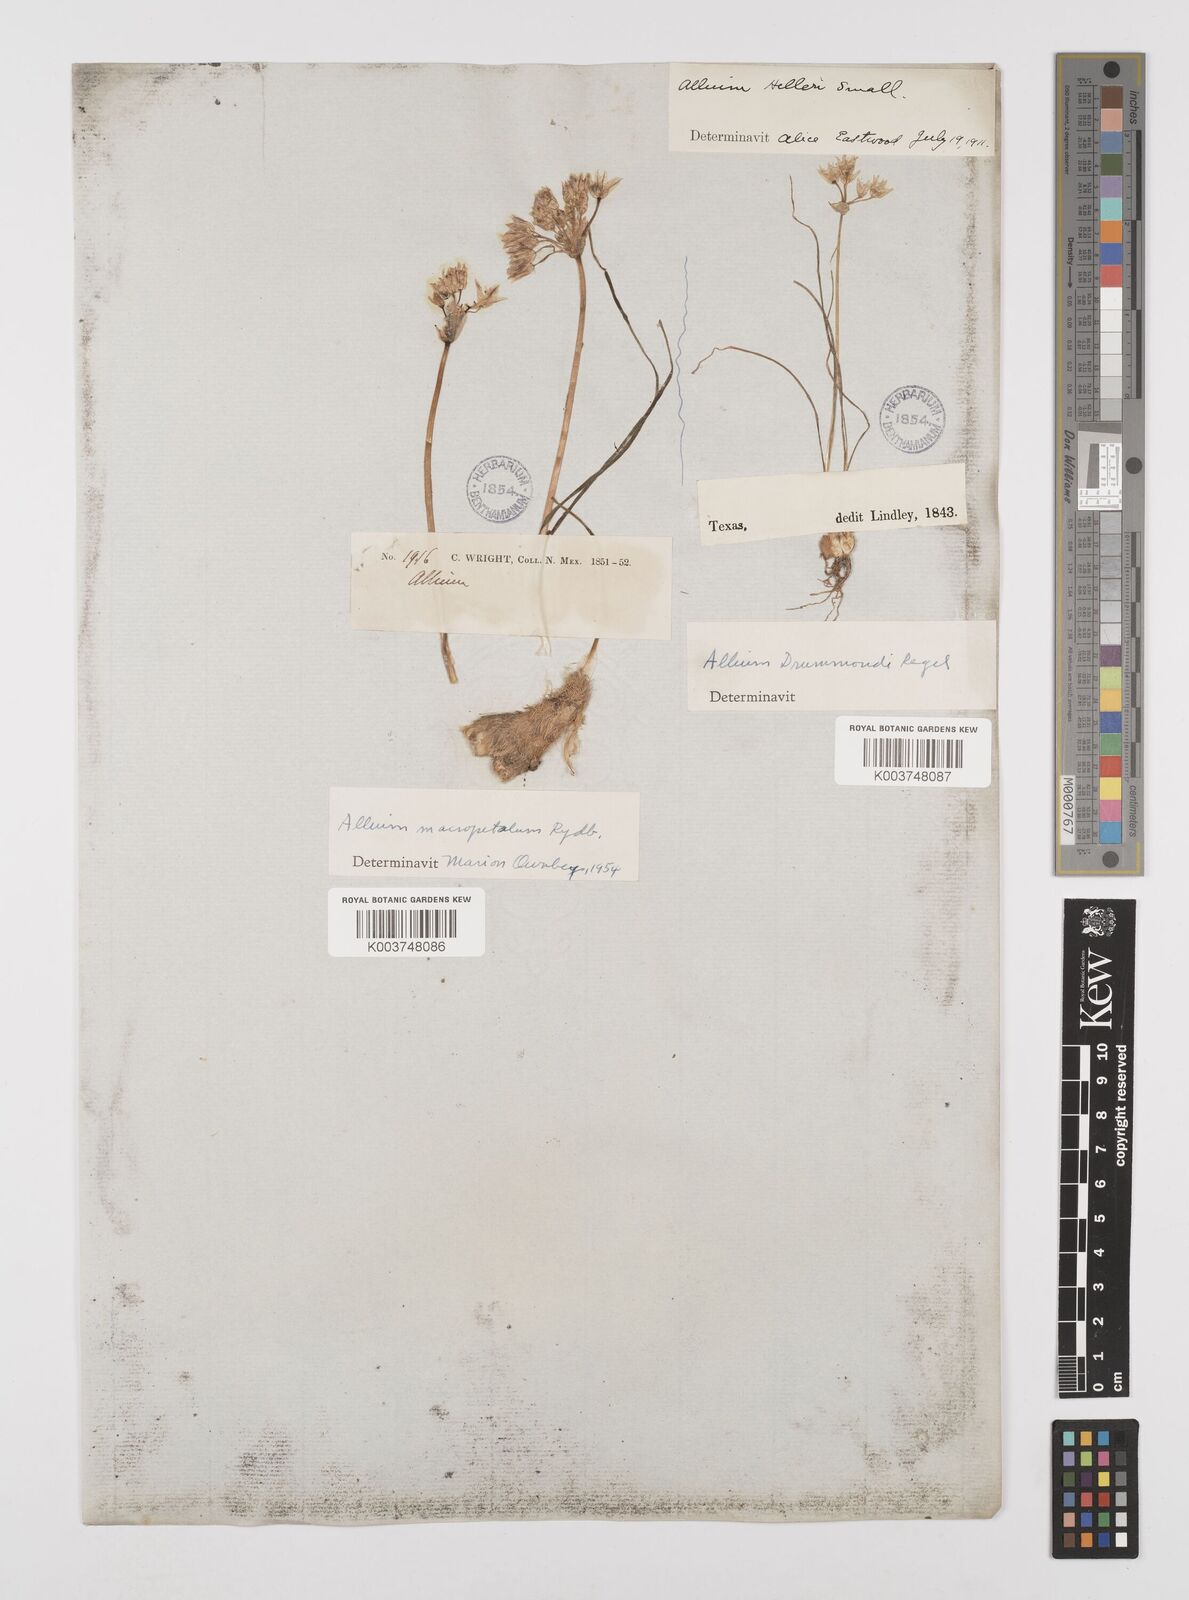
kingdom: Plantae
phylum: Tracheophyta
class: Liliopsida
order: Asparagales
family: Amaryllidaceae
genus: Allium
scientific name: Allium macropetalum
